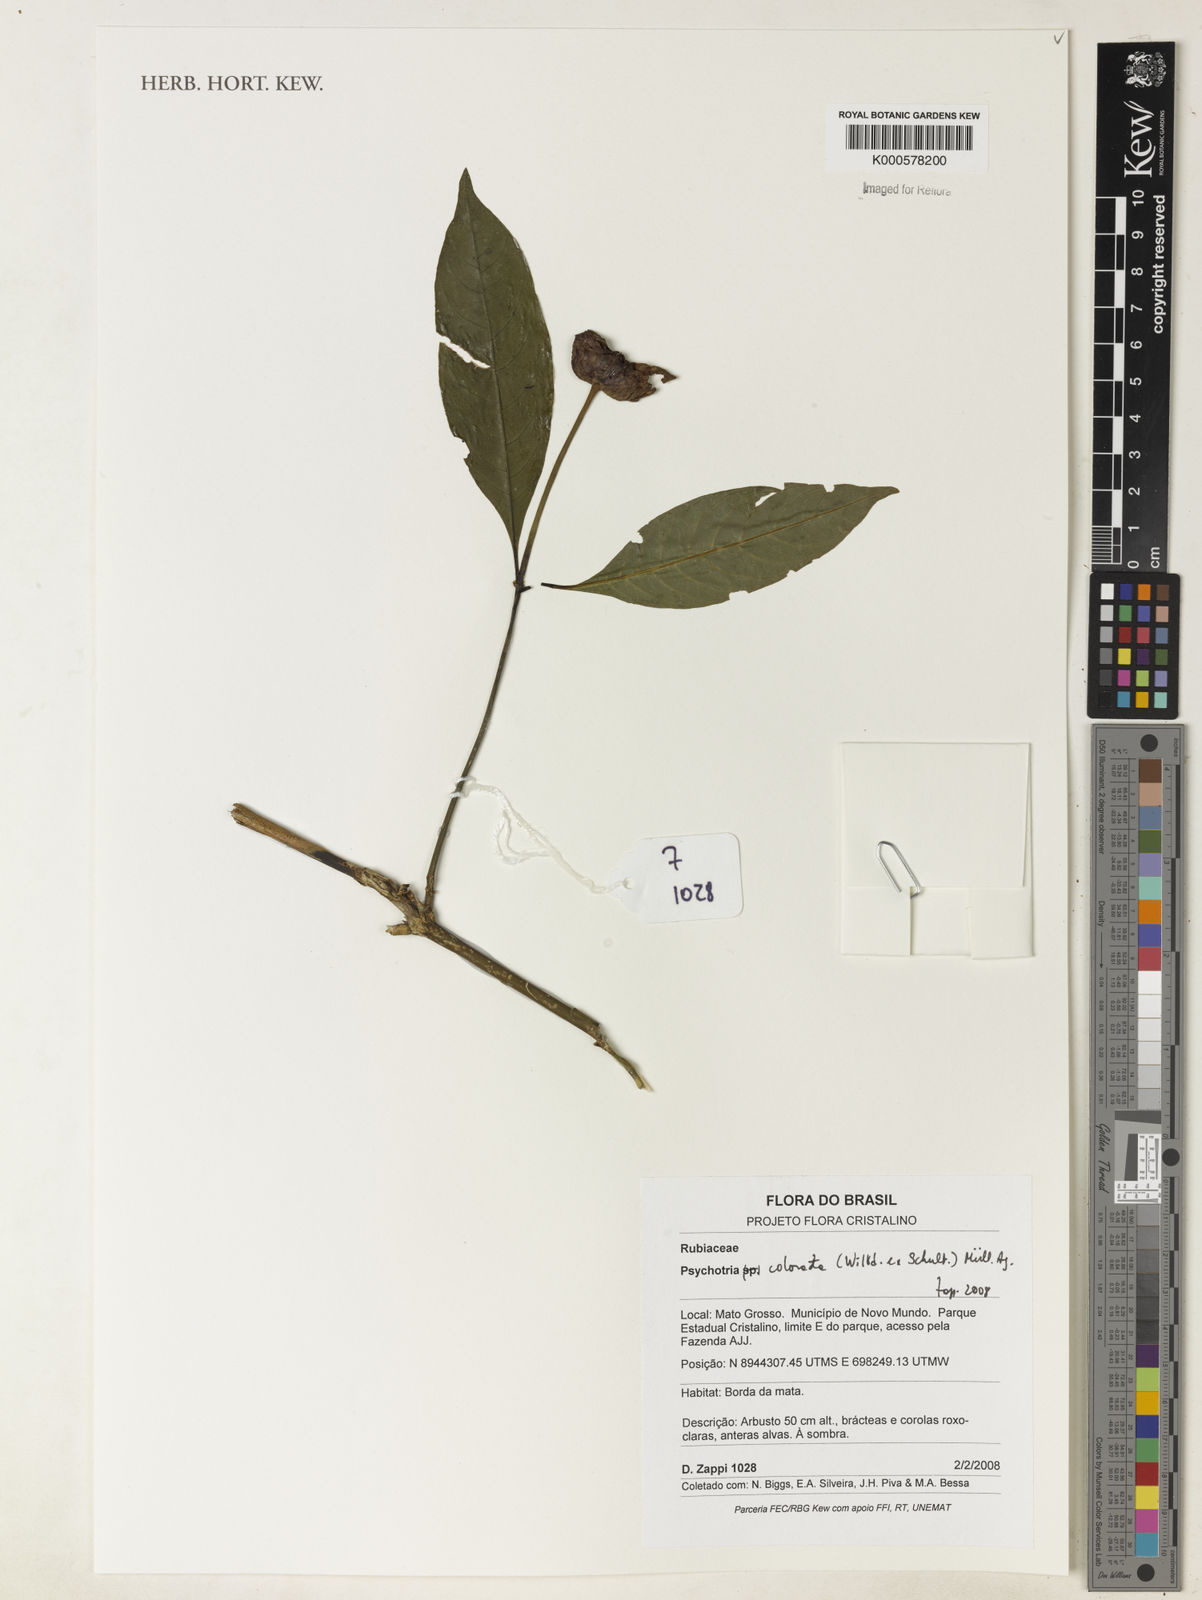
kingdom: Plantae
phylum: Tracheophyta
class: Magnoliopsida
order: Gentianales
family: Rubiaceae
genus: Psychotria
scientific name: Psychotria
